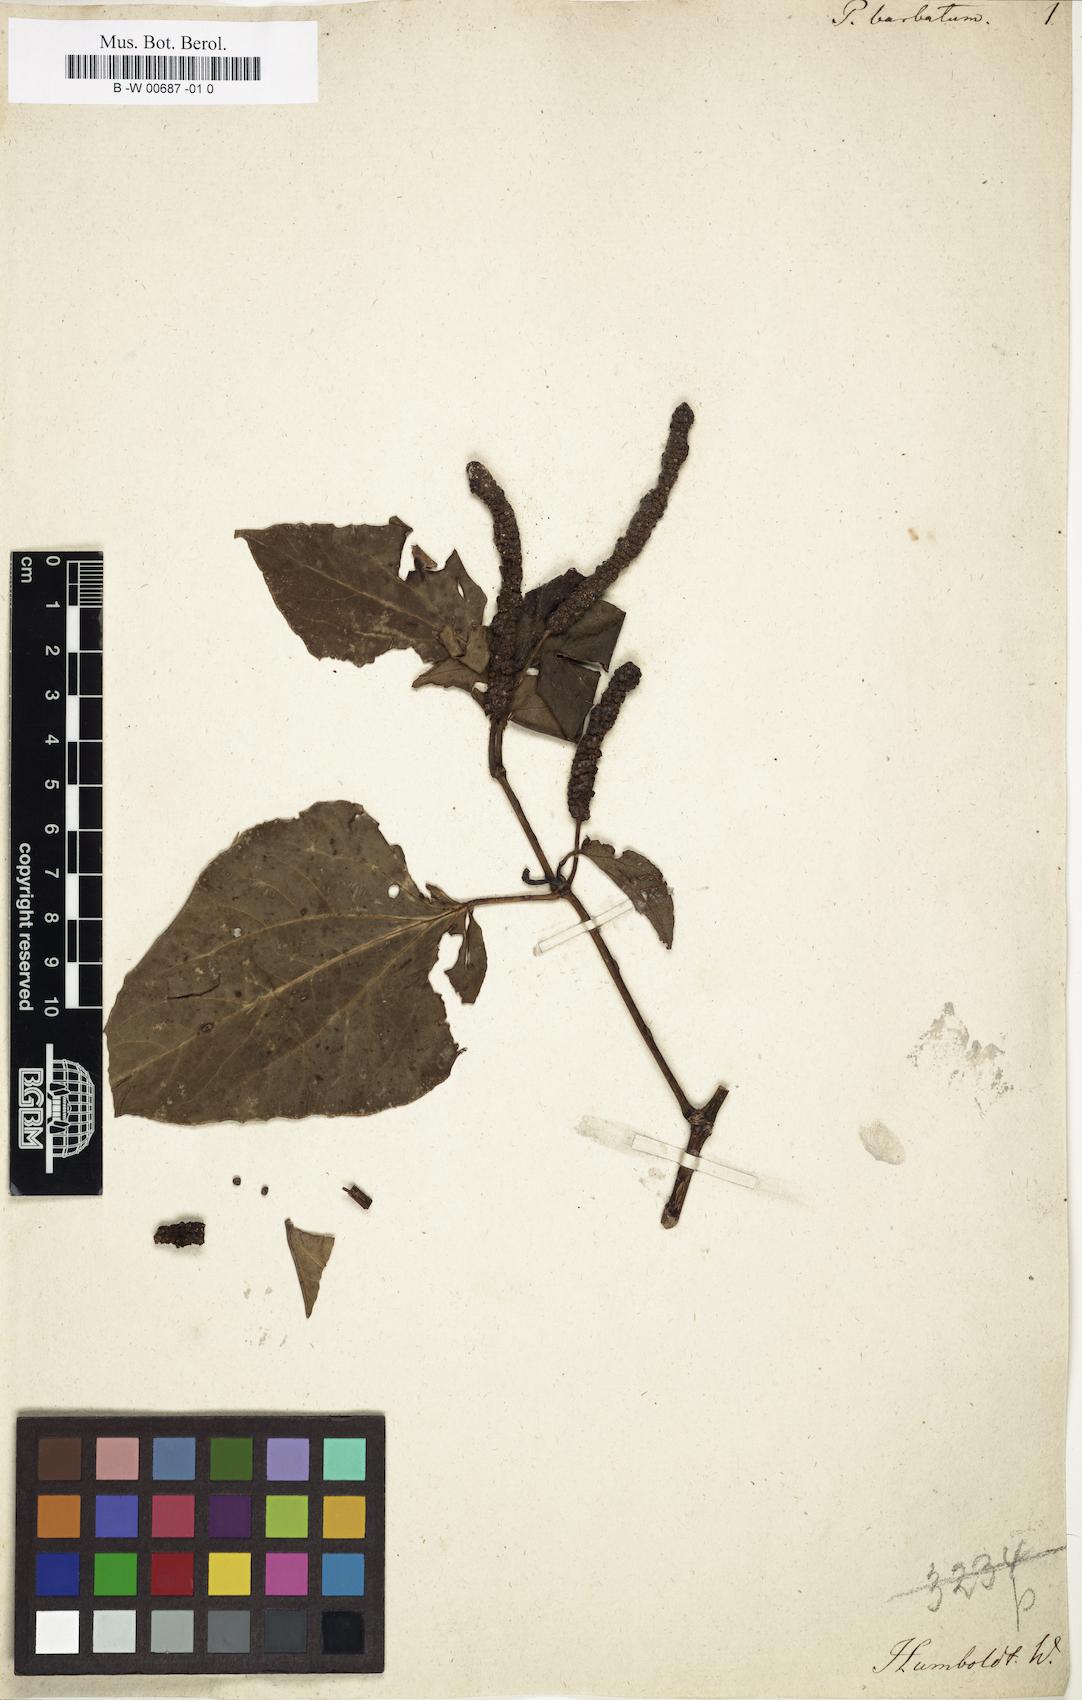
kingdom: Plantae
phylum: Tracheophyta
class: Magnoliopsida
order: Piperales
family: Piperaceae
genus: Piper
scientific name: Piper barbatum
